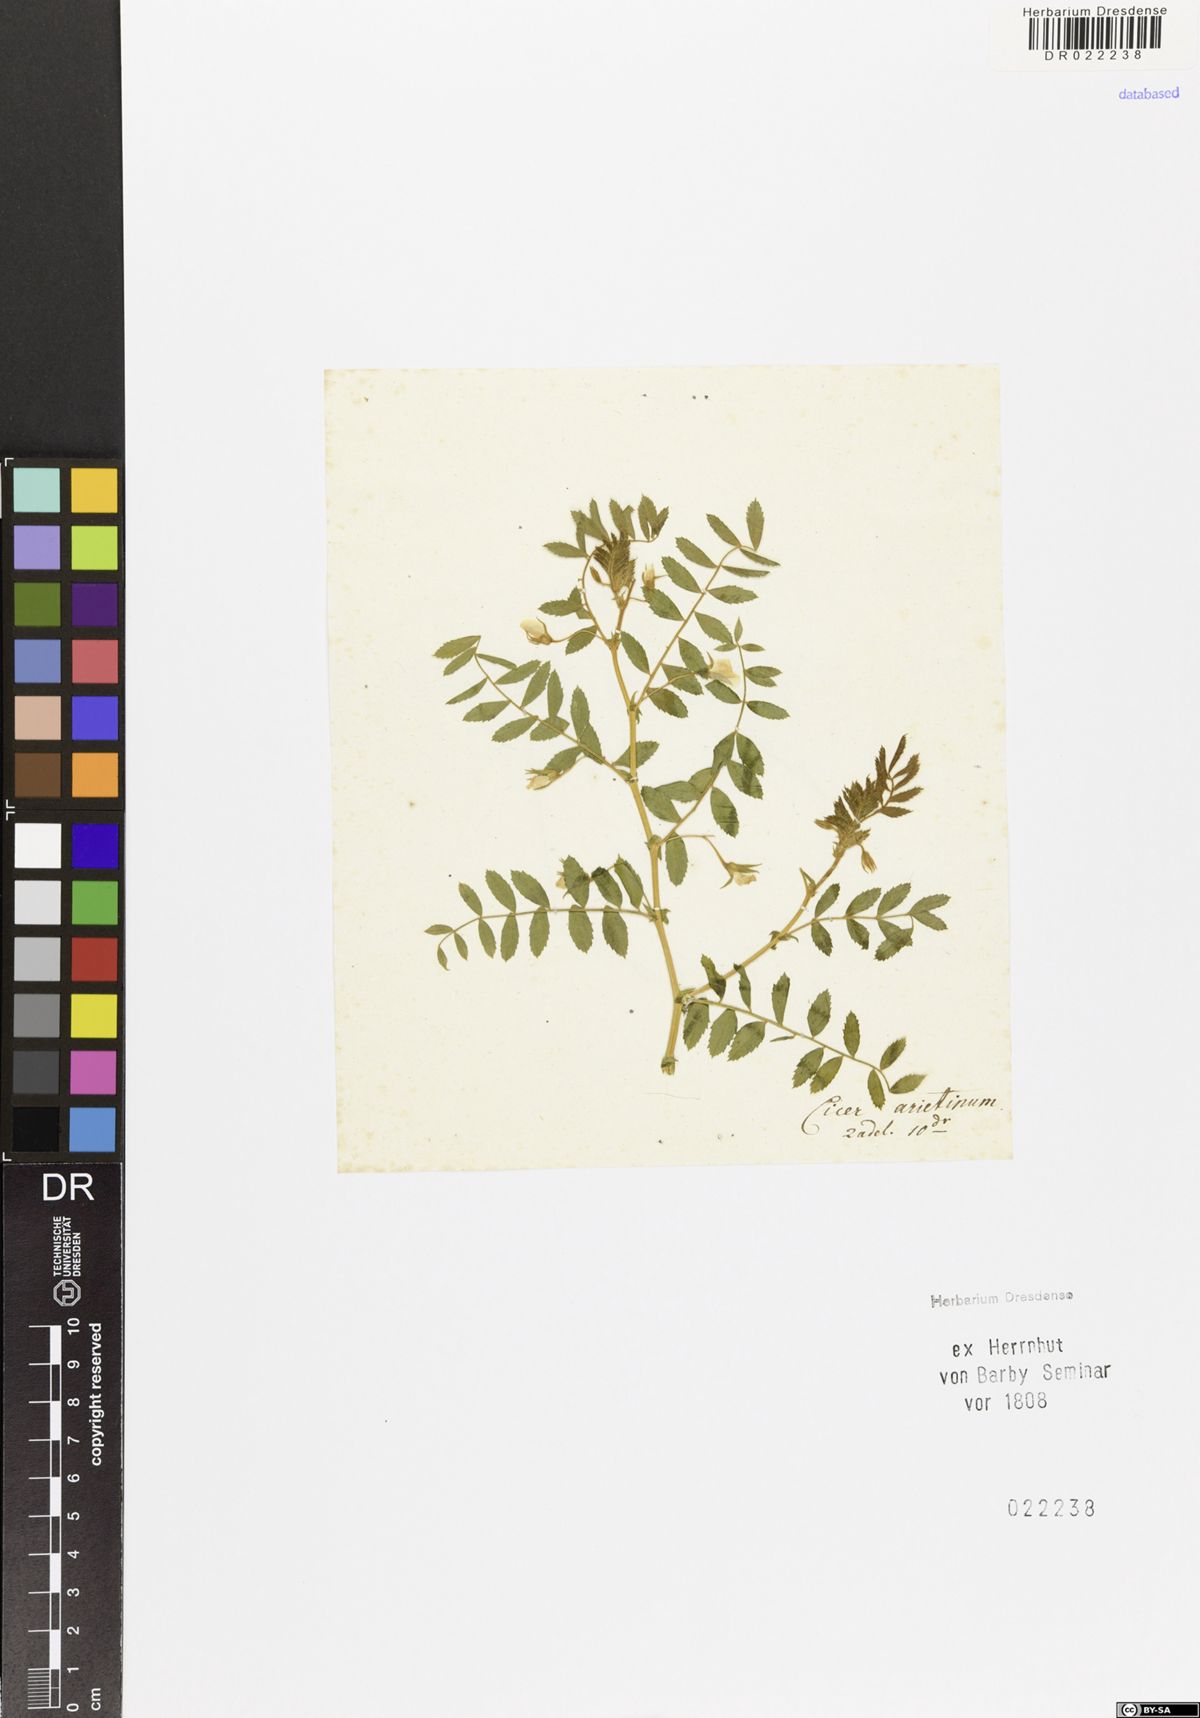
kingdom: Plantae
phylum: Tracheophyta
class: Magnoliopsida
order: Fabales
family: Fabaceae
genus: Cicer
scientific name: Cicer arietinum
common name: Chick pea
